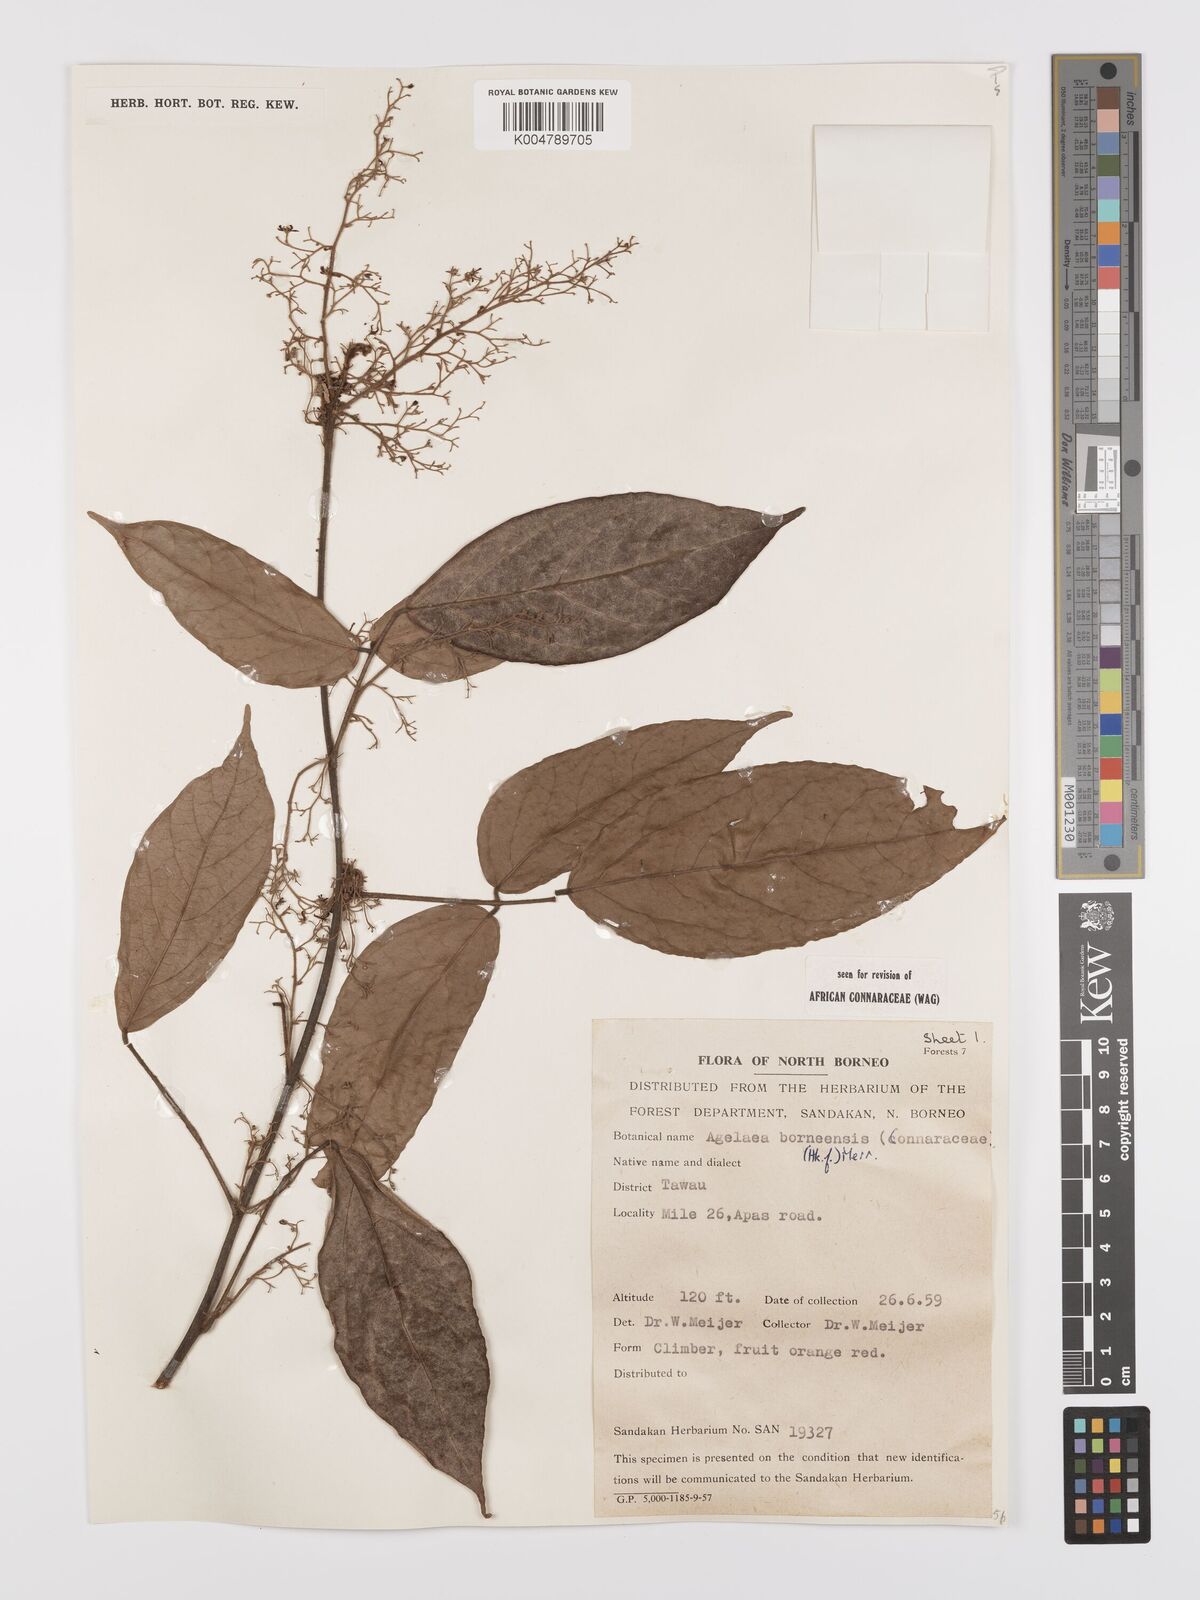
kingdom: Plantae
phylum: Tracheophyta
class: Magnoliopsida
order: Oxalidales
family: Connaraceae
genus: Agelaea
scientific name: Agelaea borneensis
